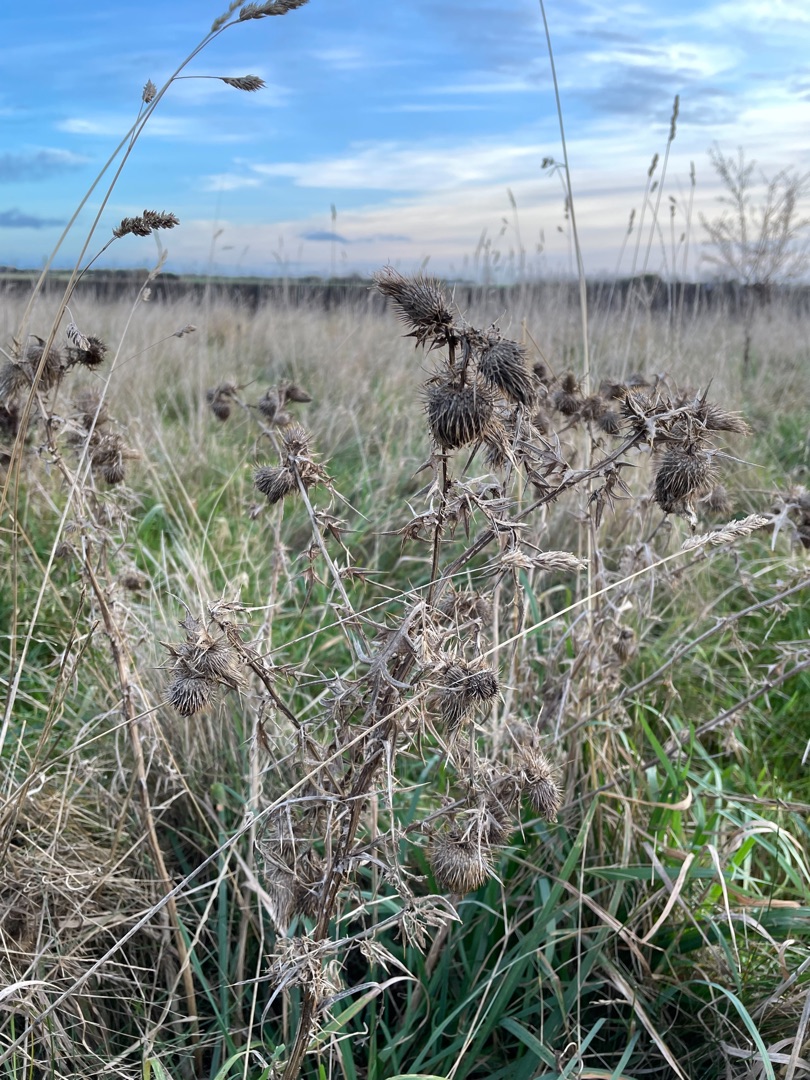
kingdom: Plantae
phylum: Tracheophyta
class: Magnoliopsida
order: Asterales
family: Asteraceae
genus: Cirsium
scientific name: Cirsium vulgare
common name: Horse-tidsel
